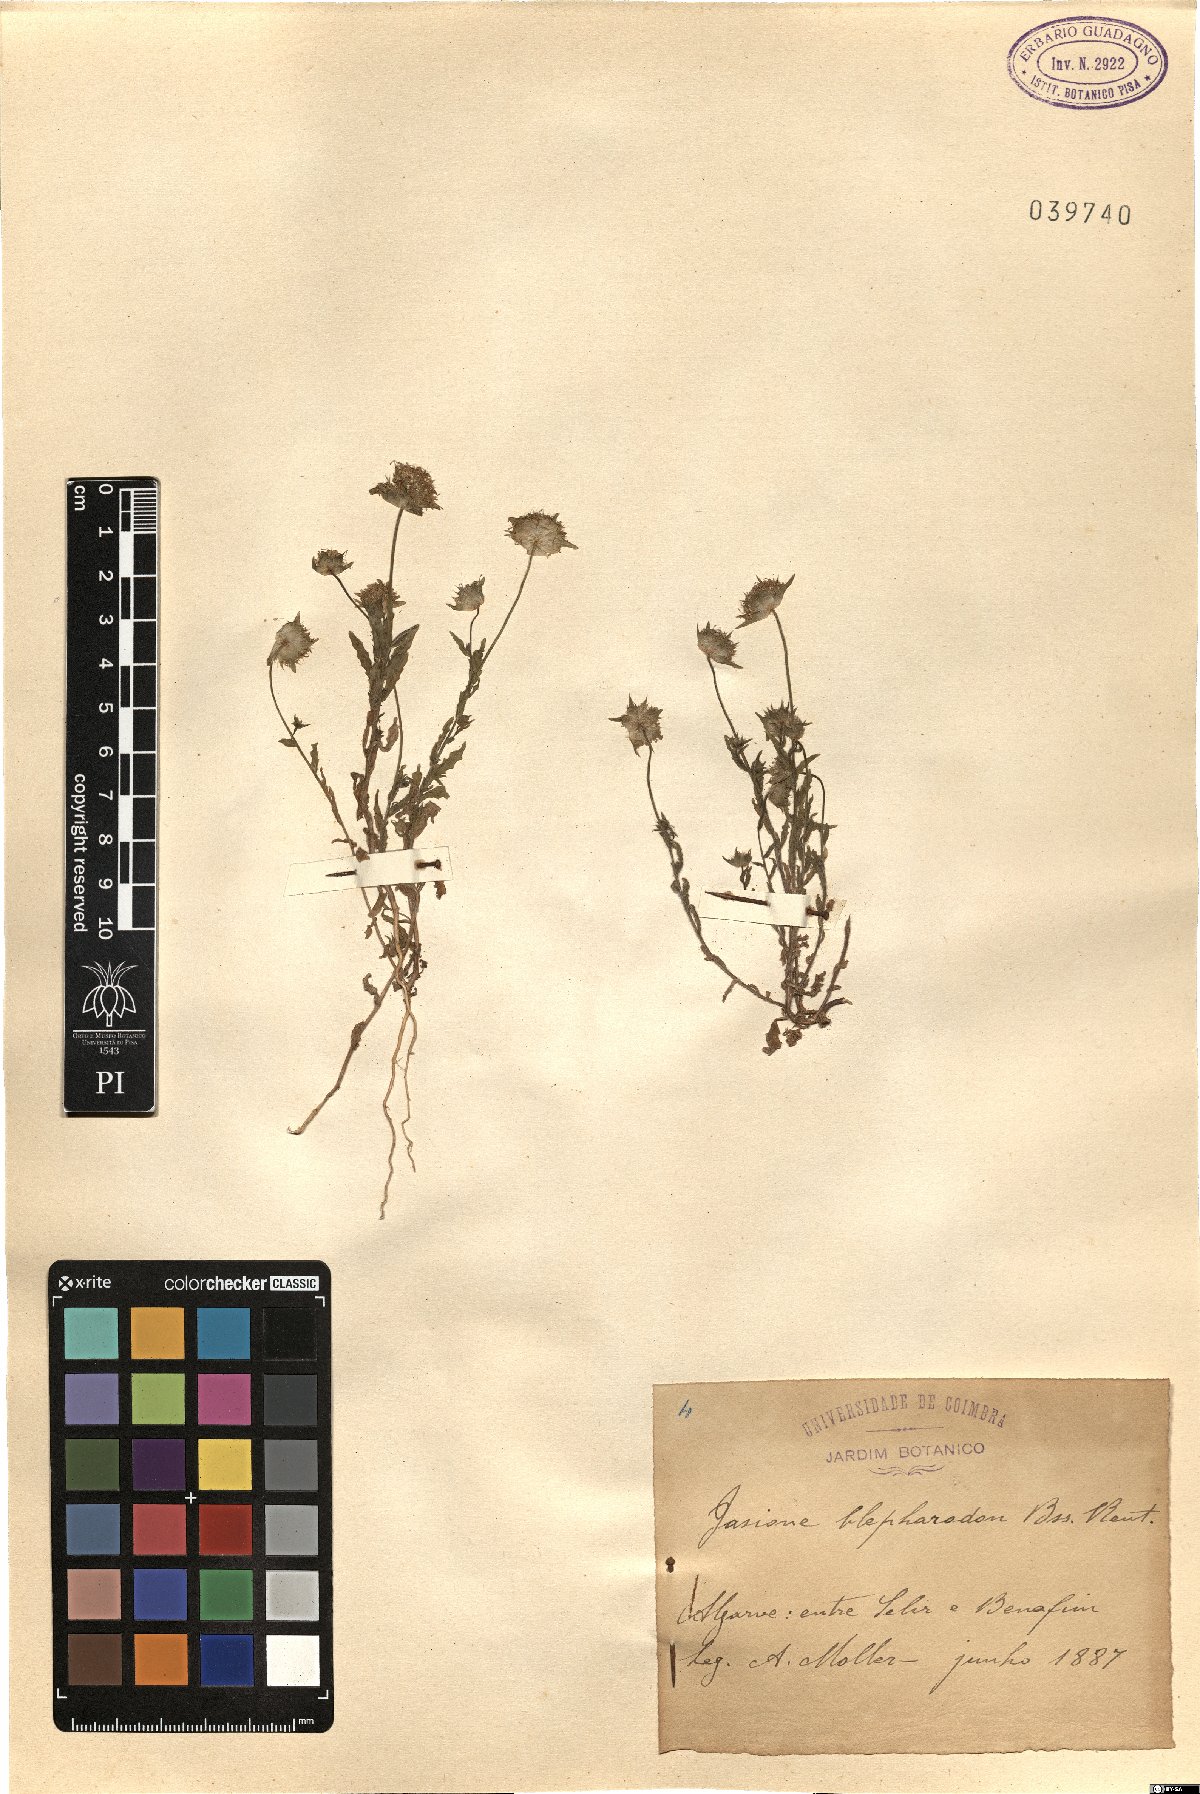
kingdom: Plantae
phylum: Tracheophyta
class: Magnoliopsida
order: Asterales
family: Campanulaceae
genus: Jasione
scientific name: Jasione montana
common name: Sheep's-bit
